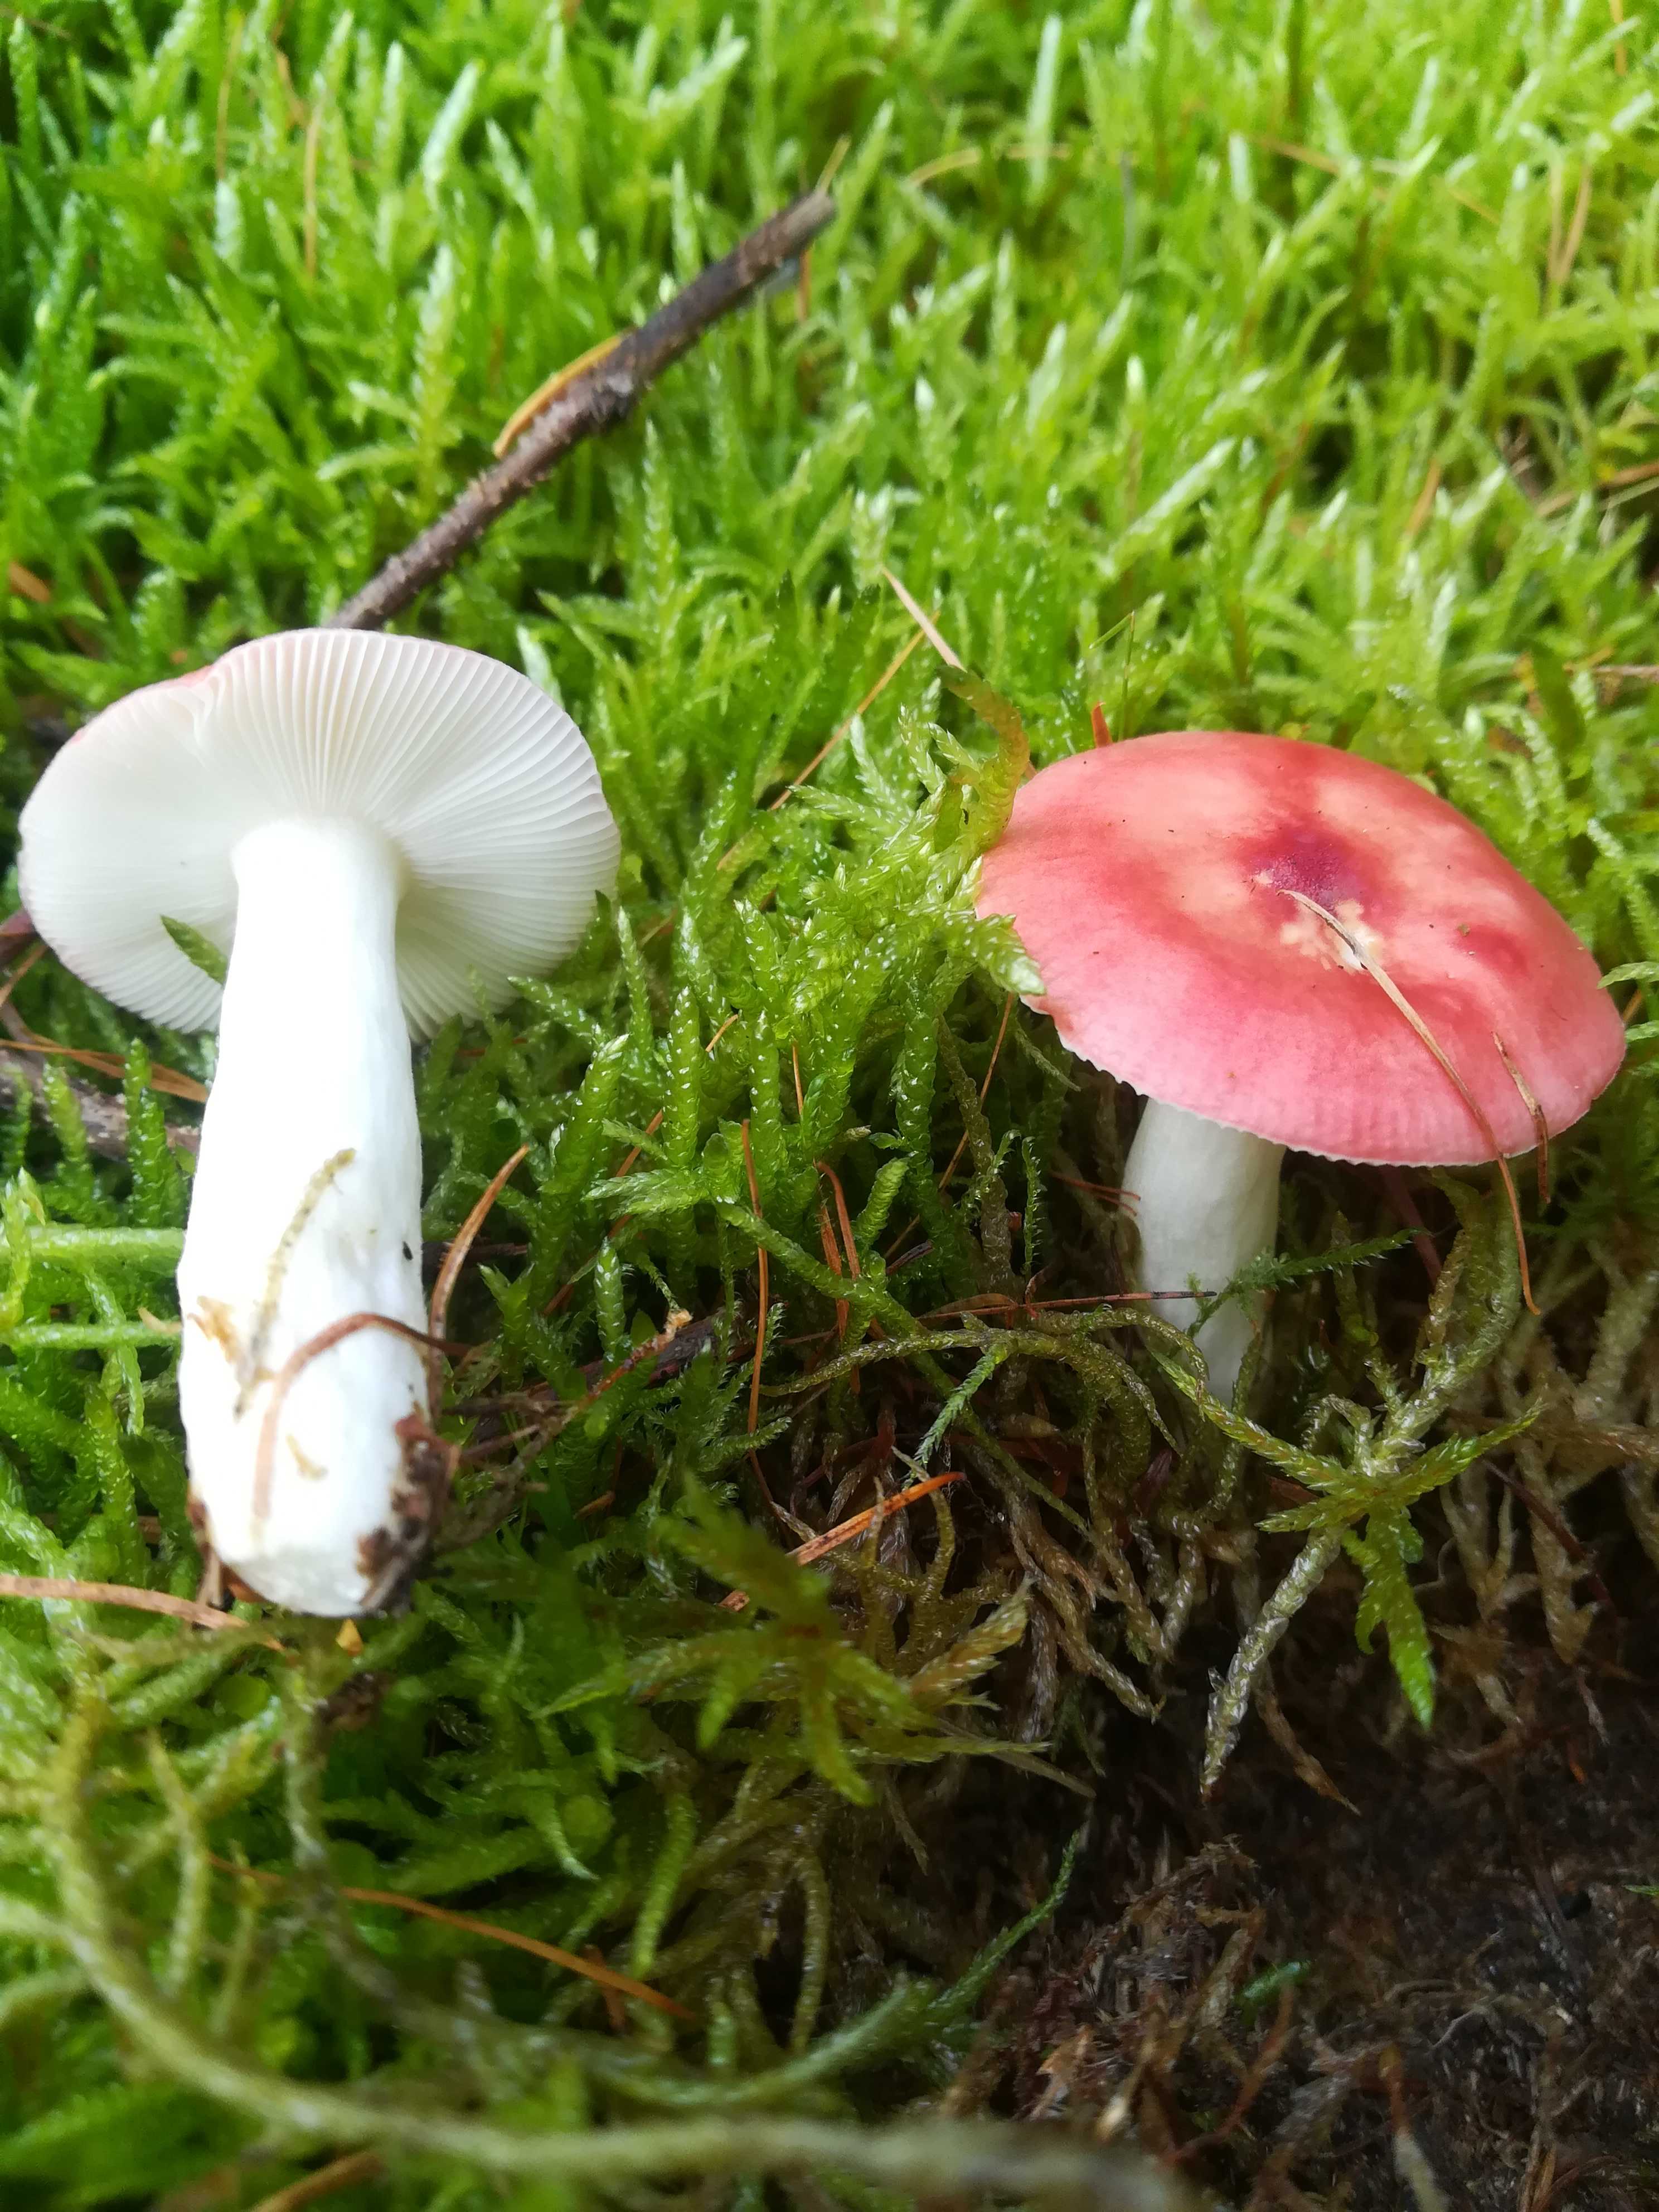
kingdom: Fungi
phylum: Basidiomycota
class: Agaricomycetes
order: Russulales
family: Russulaceae
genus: Russula
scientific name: Russula
